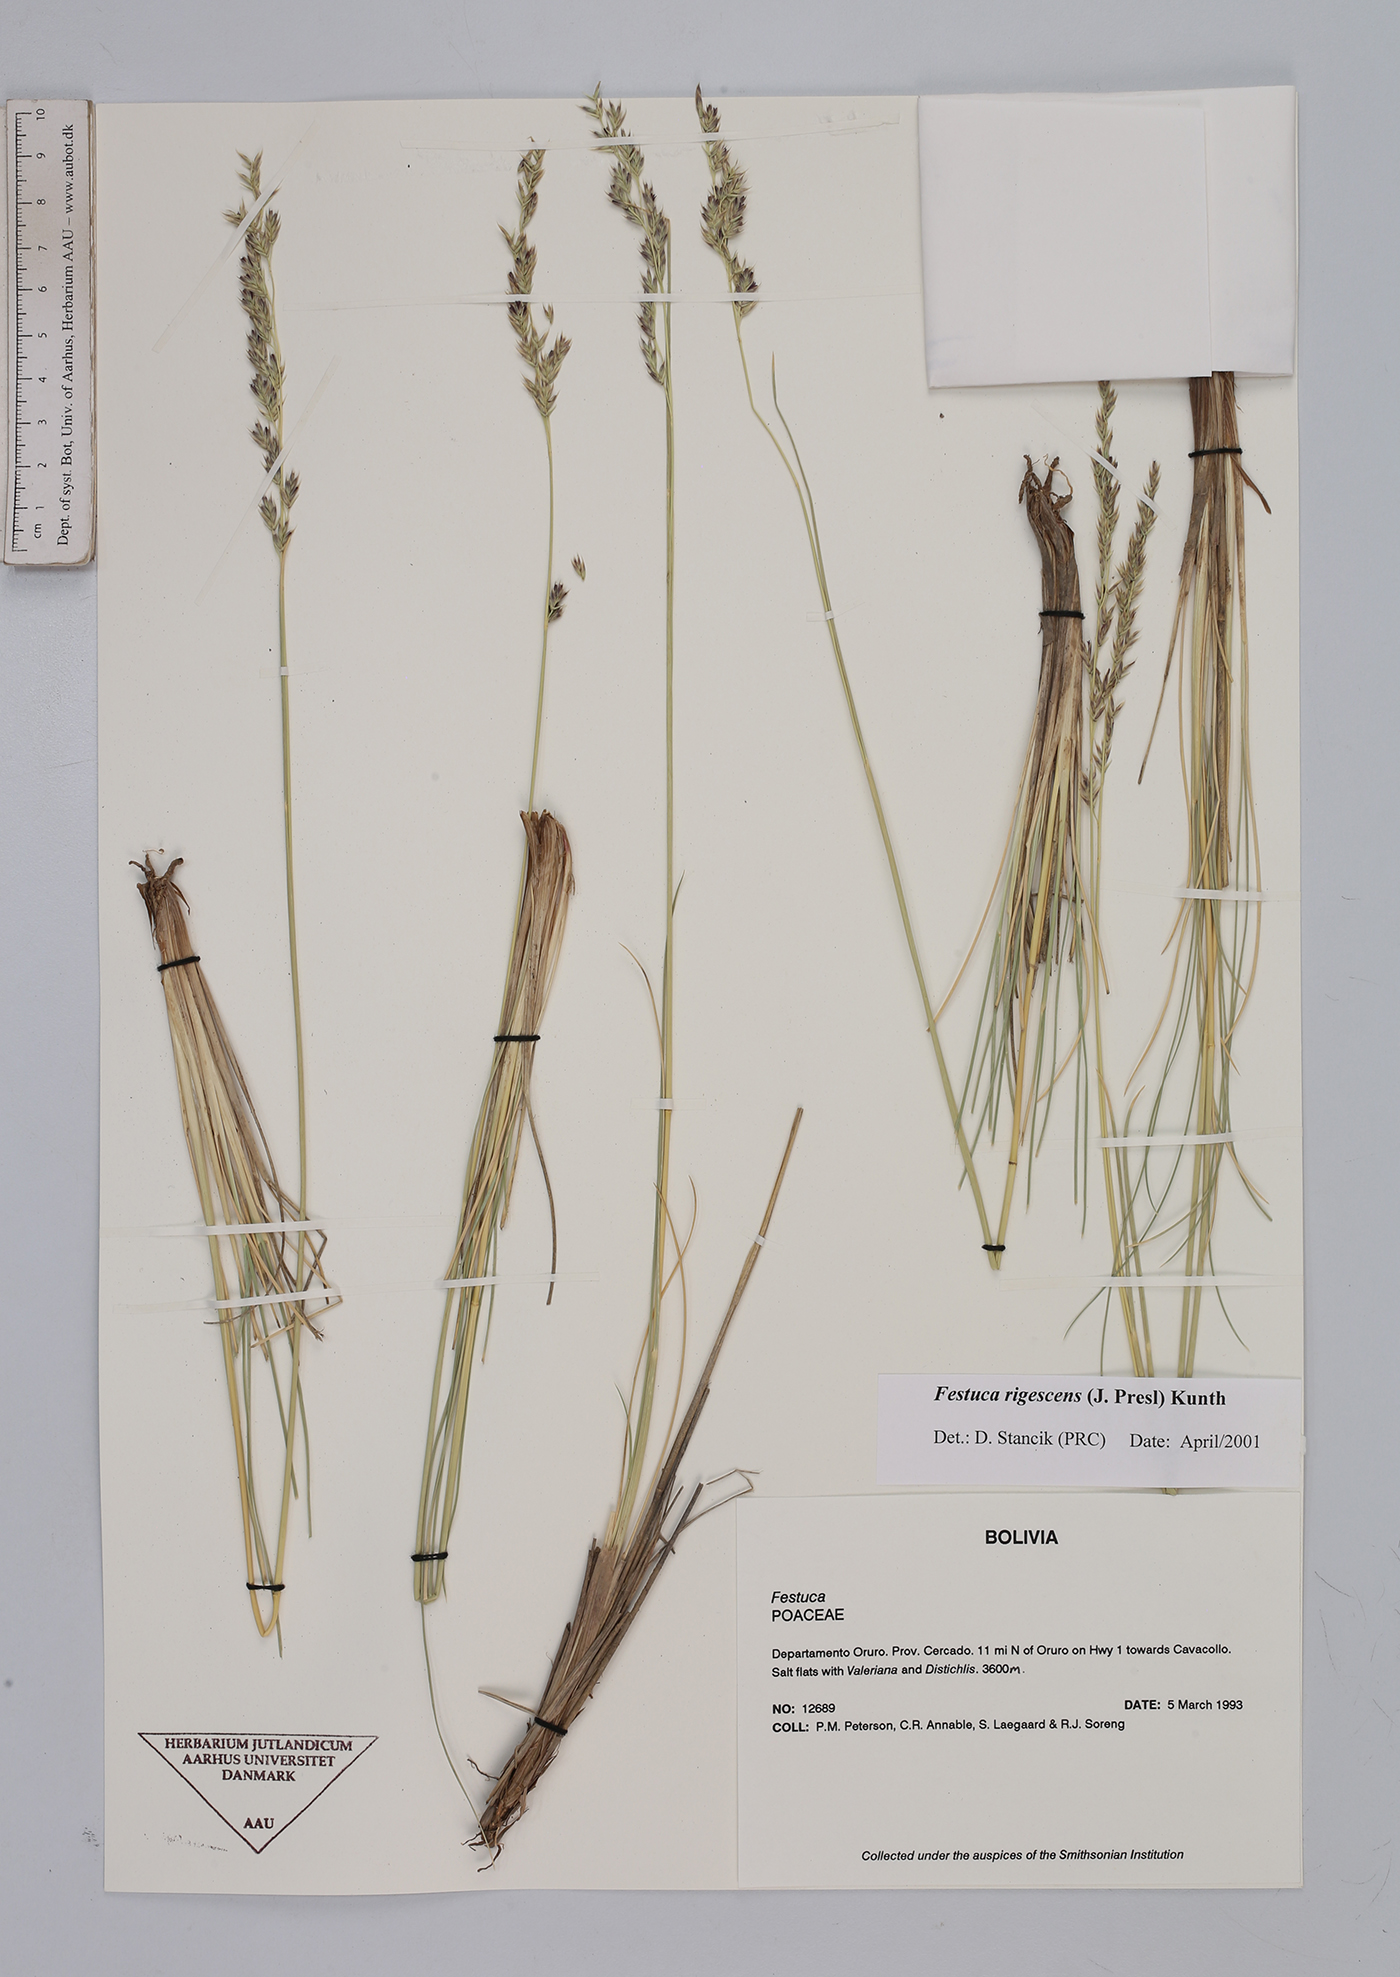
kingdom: Plantae
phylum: Tracheophyta
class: Liliopsida
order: Poales
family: Poaceae
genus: Festuca
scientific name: Festuca rigescens
